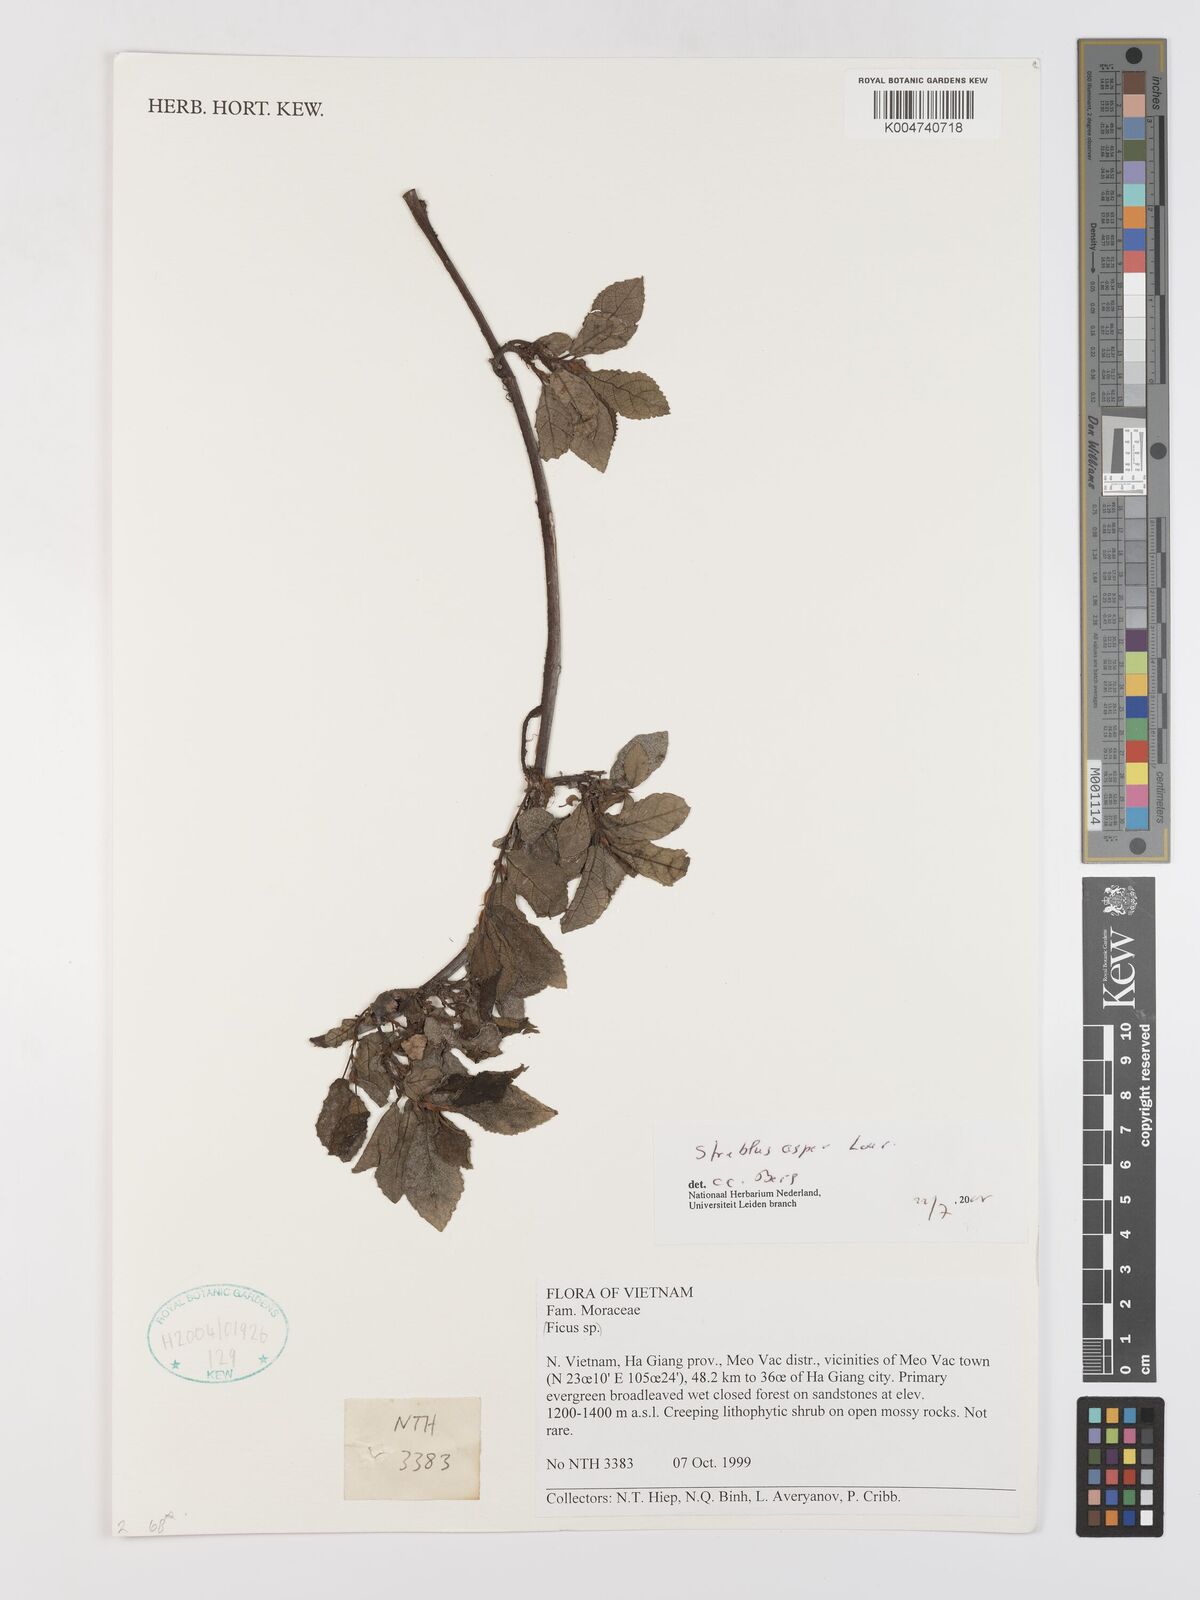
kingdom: Plantae
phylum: Tracheophyta
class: Magnoliopsida
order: Rosales
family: Moraceae
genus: Streblus
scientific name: Streblus asper
